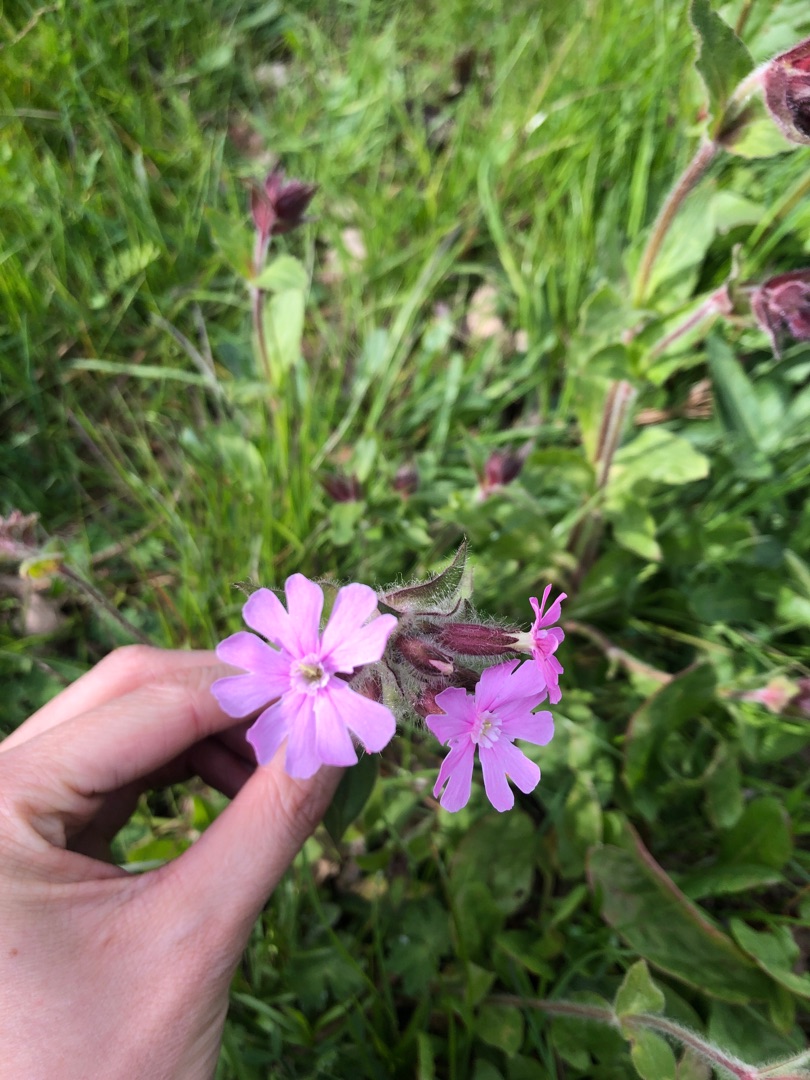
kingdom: Plantae
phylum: Tracheophyta
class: Magnoliopsida
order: Caryophyllales
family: Caryophyllaceae
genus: Silene
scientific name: Silene dioica
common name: Dagpragtstjerne
